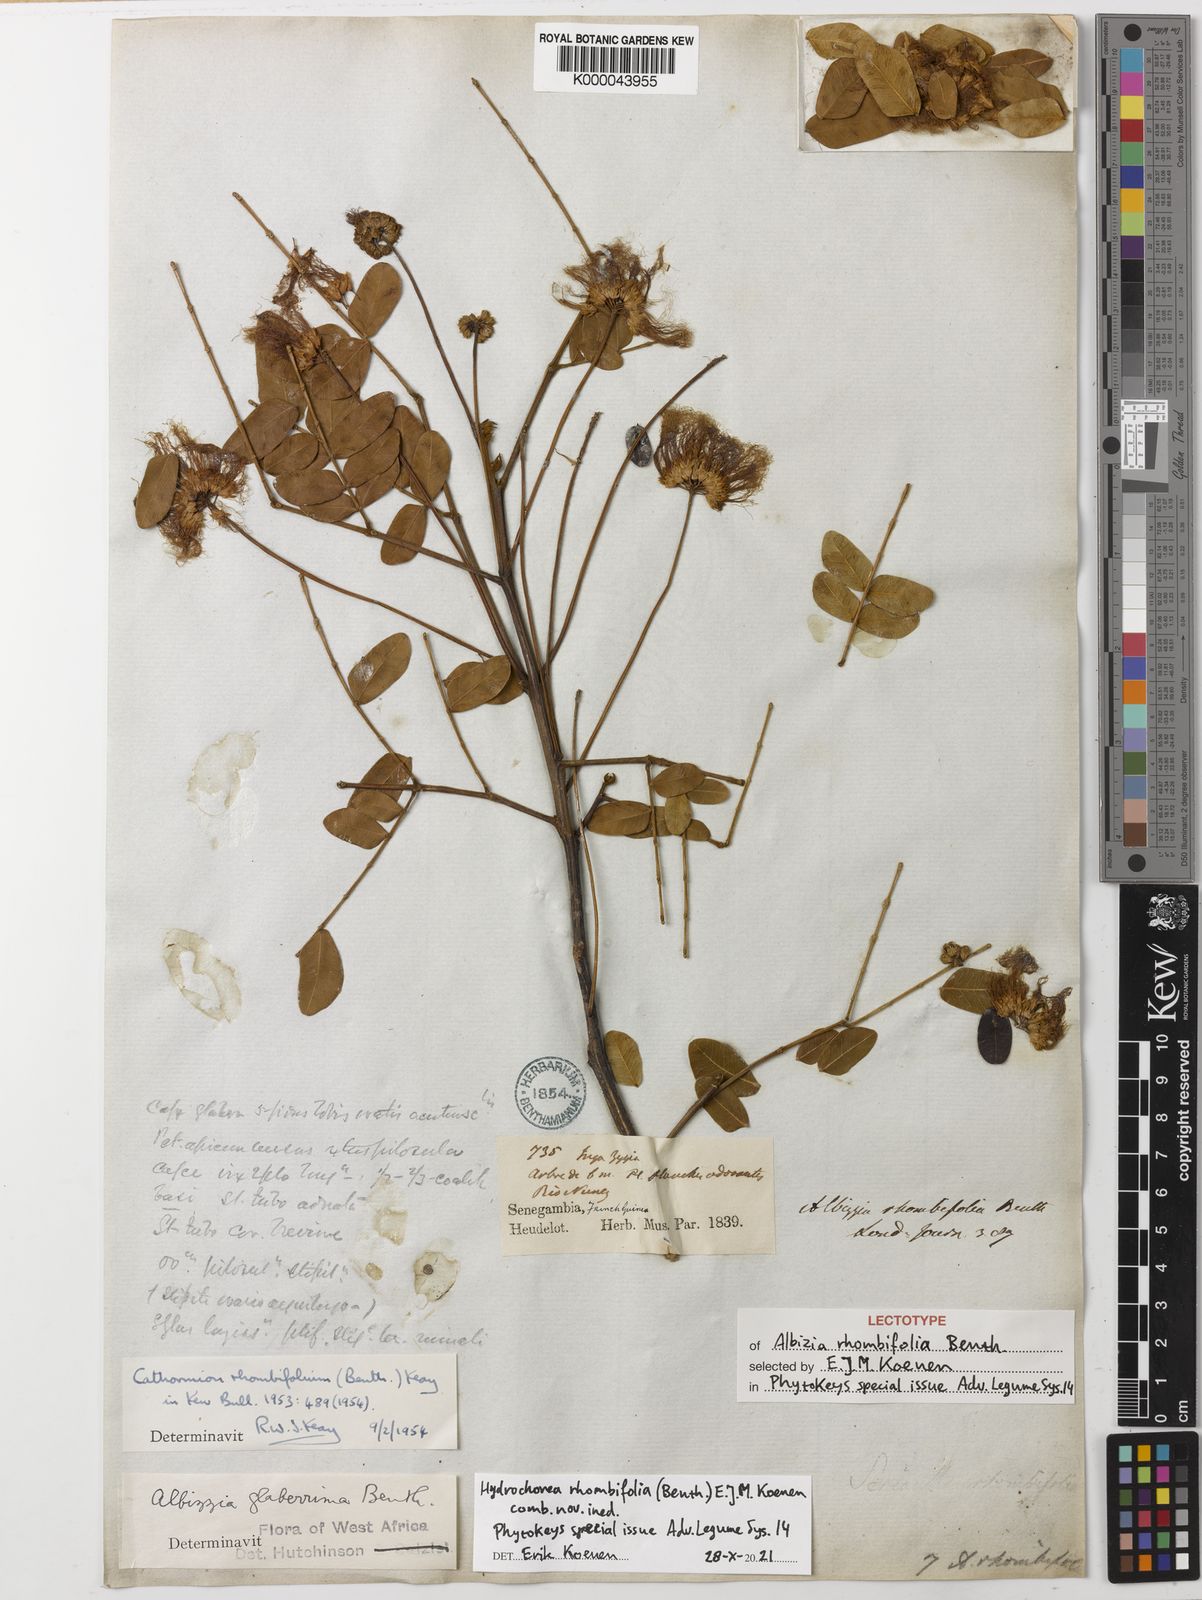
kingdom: Plantae
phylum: Tracheophyta
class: Magnoliopsida
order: Fabales
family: Fabaceae
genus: Albizia
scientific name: Albizia rhombifolia
